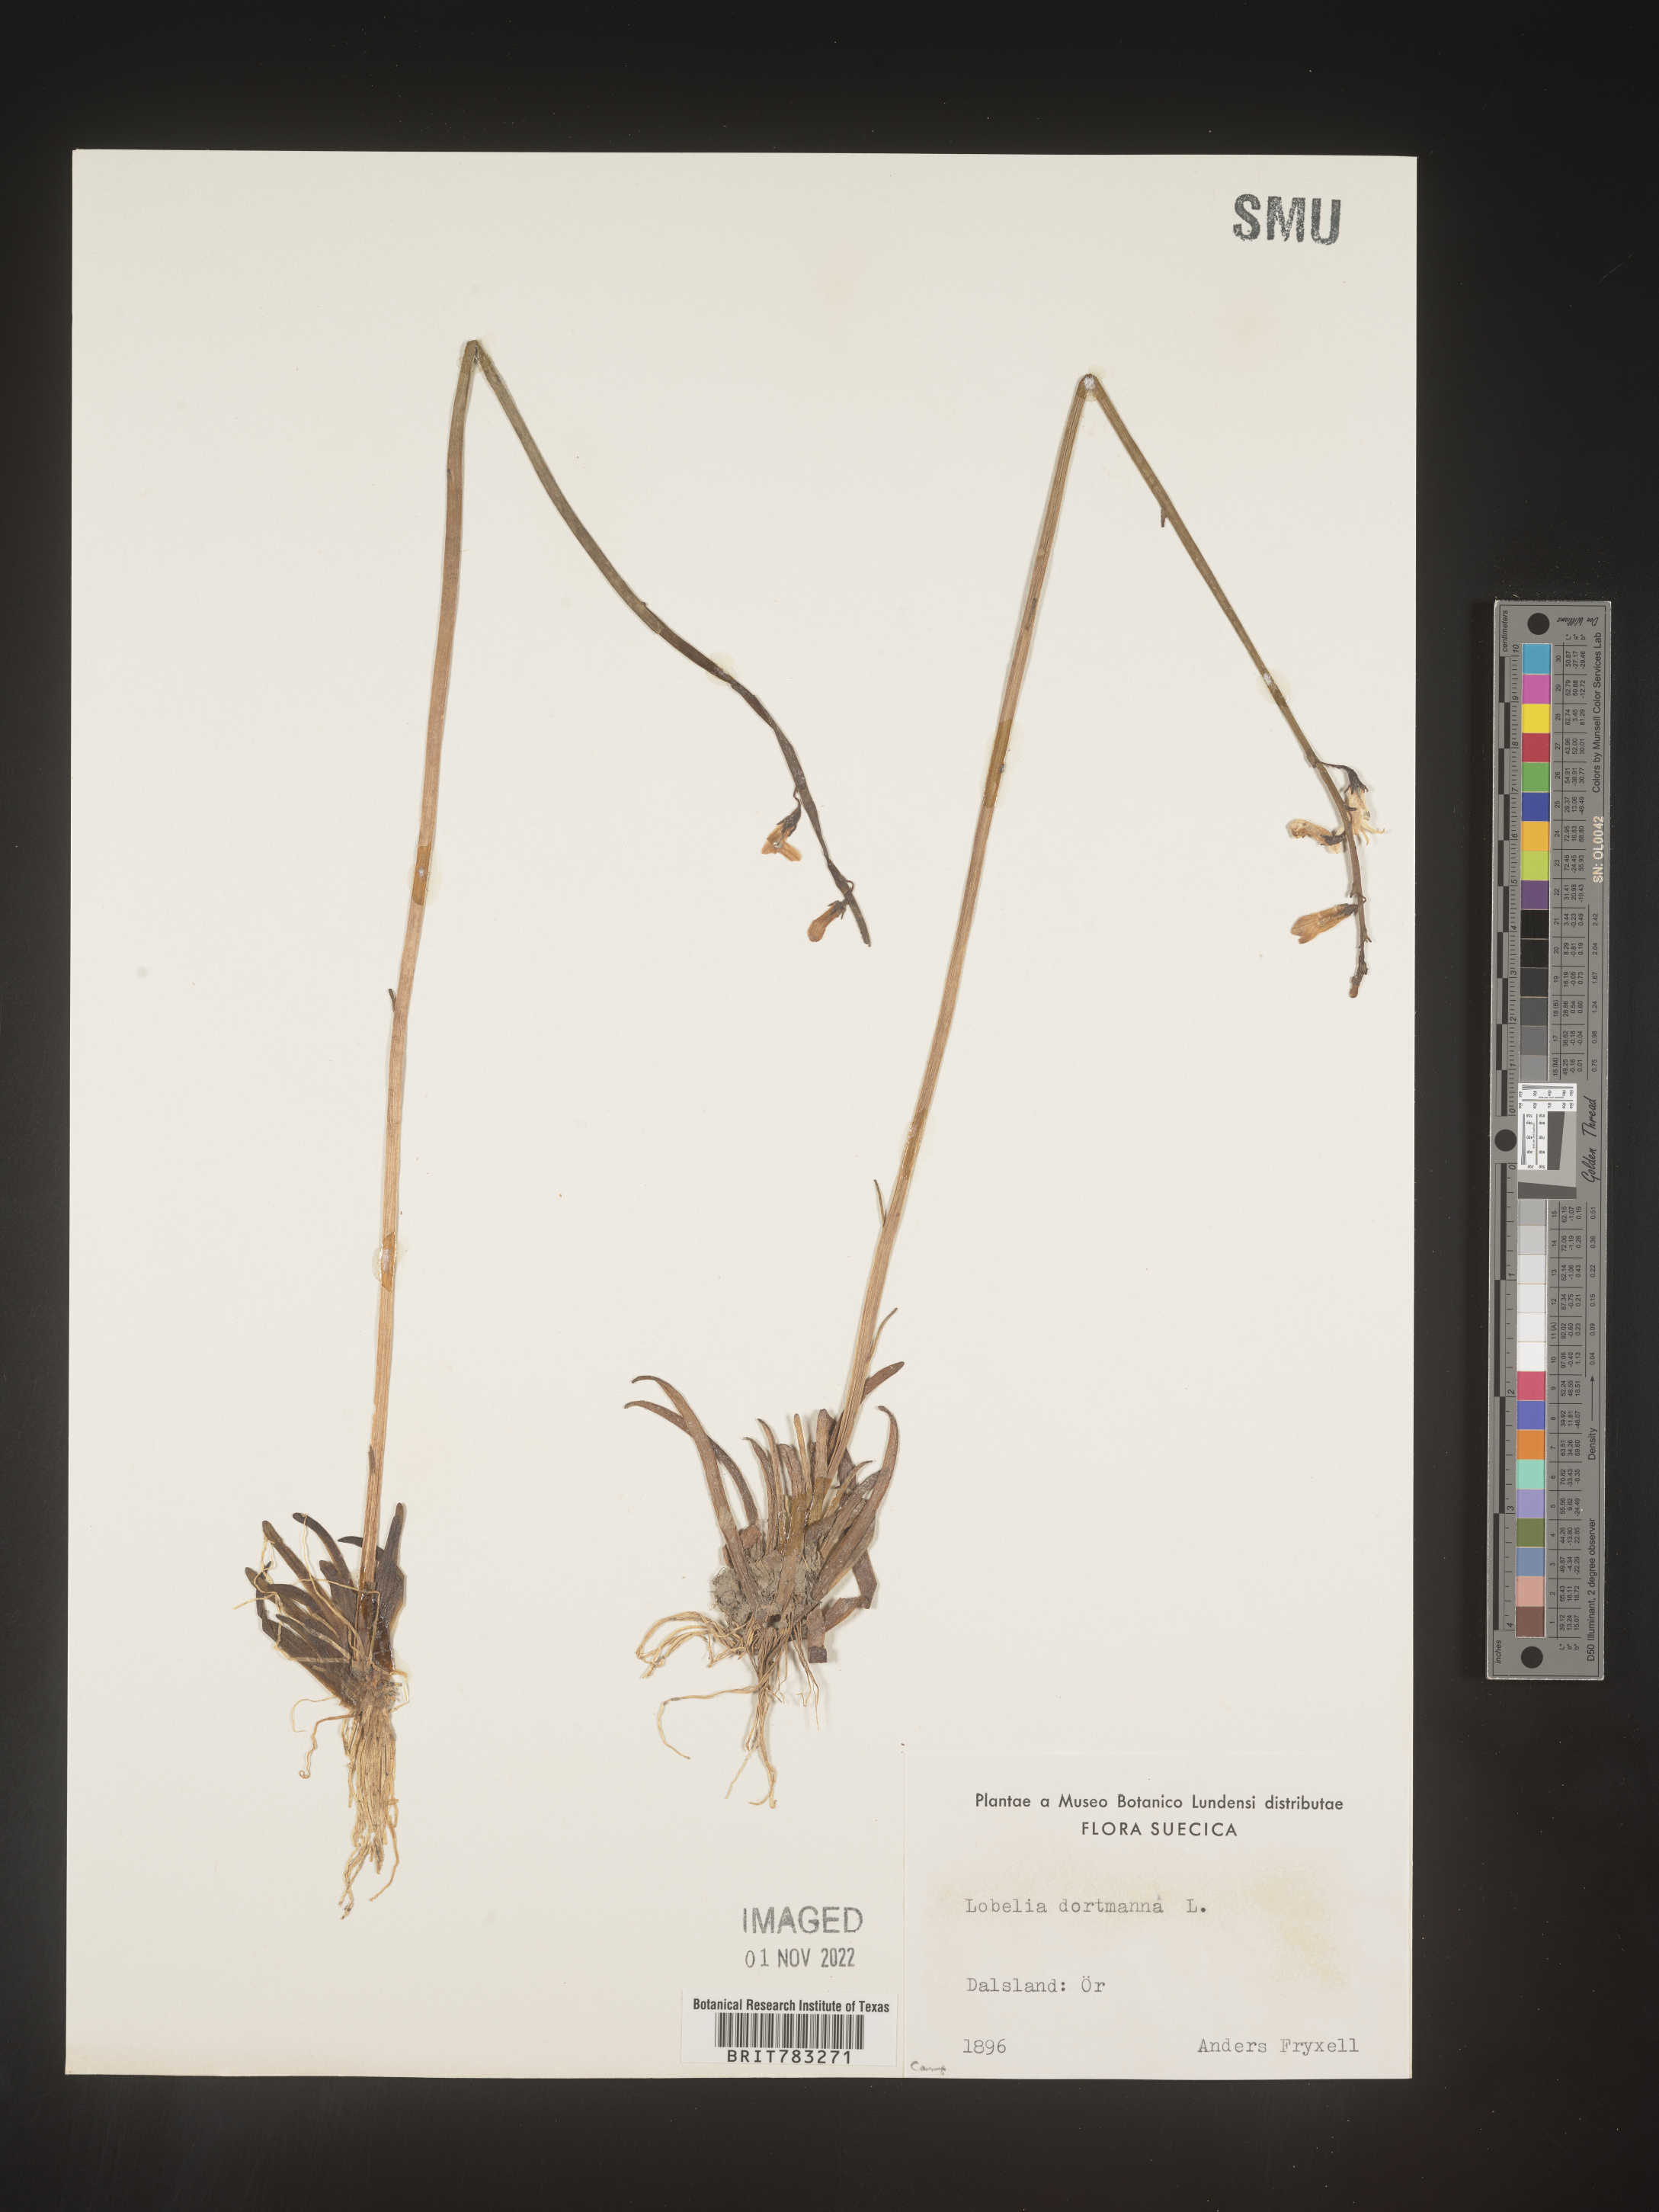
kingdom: Plantae
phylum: Tracheophyta
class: Magnoliopsida
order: Asterales
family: Campanulaceae
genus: Lobelia
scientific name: Lobelia
